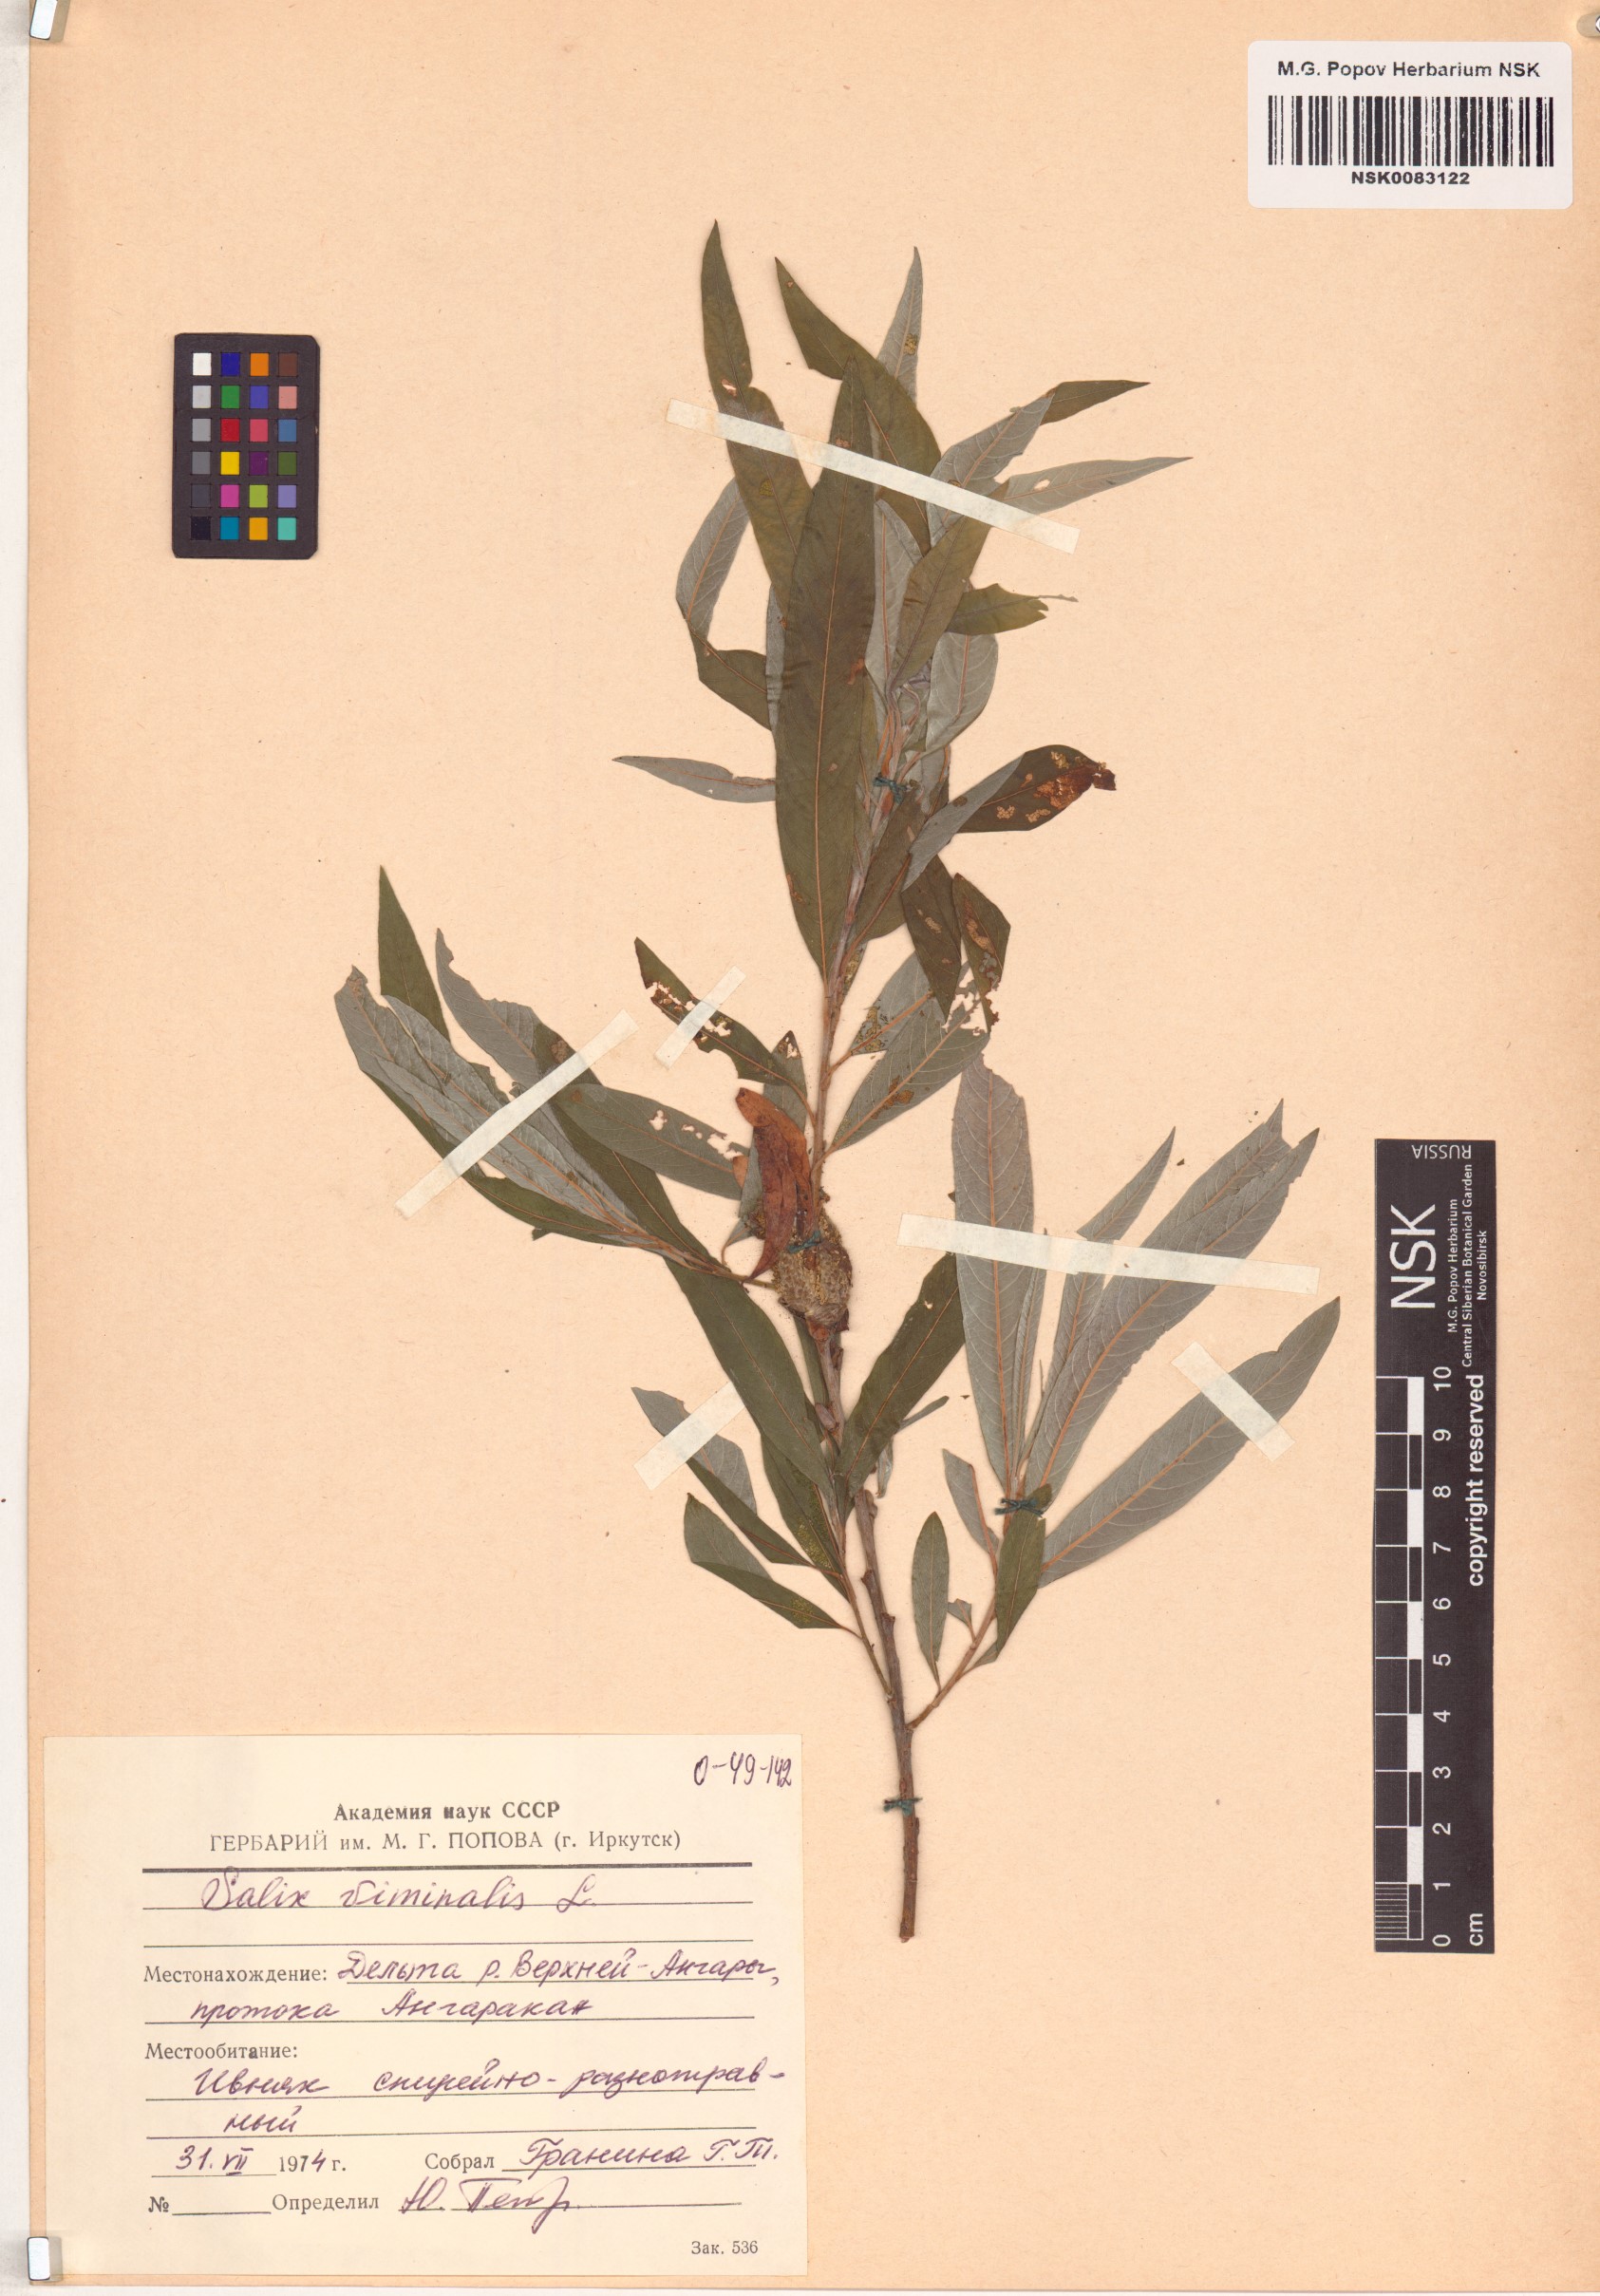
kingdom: Plantae
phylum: Tracheophyta
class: Magnoliopsida
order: Malpighiales
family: Salicaceae
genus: Salix
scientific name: Salix viminalis
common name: Osier
